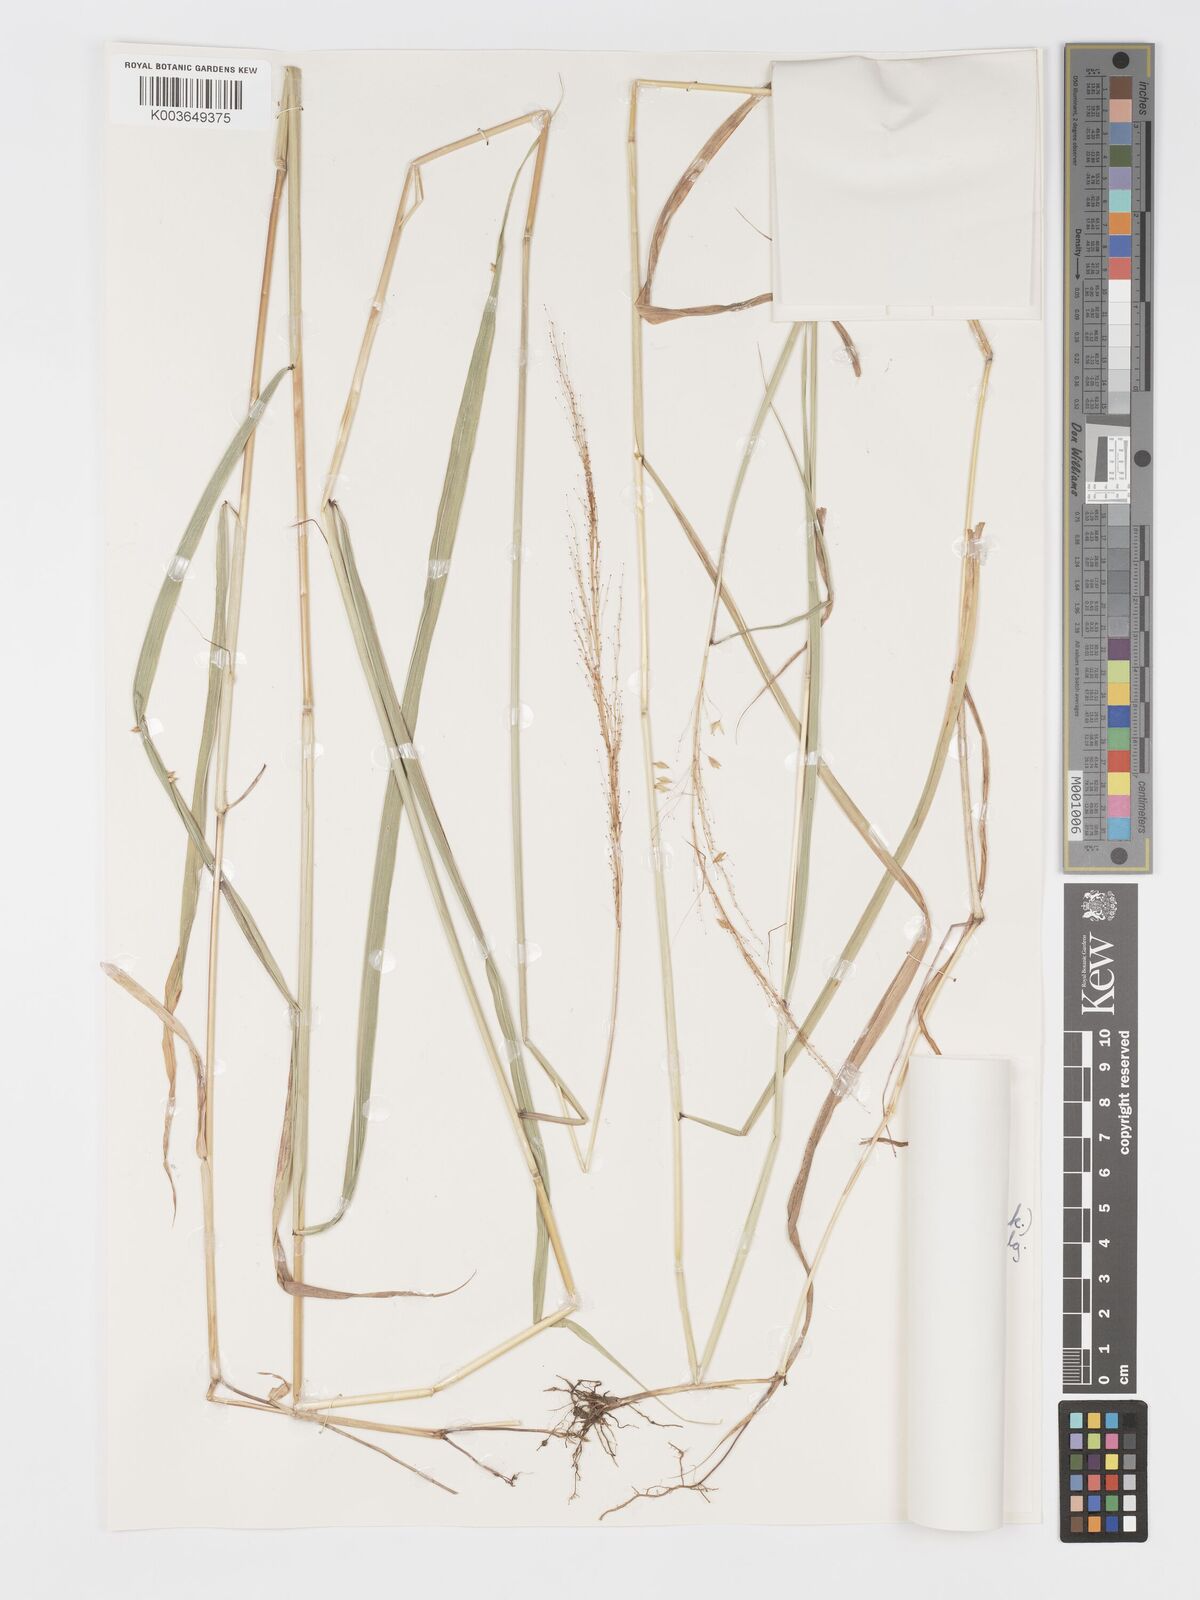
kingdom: Plantae
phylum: Tracheophyta
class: Liliopsida
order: Poales
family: Poaceae
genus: Sorghastrum
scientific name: Sorghastrum incompletum
